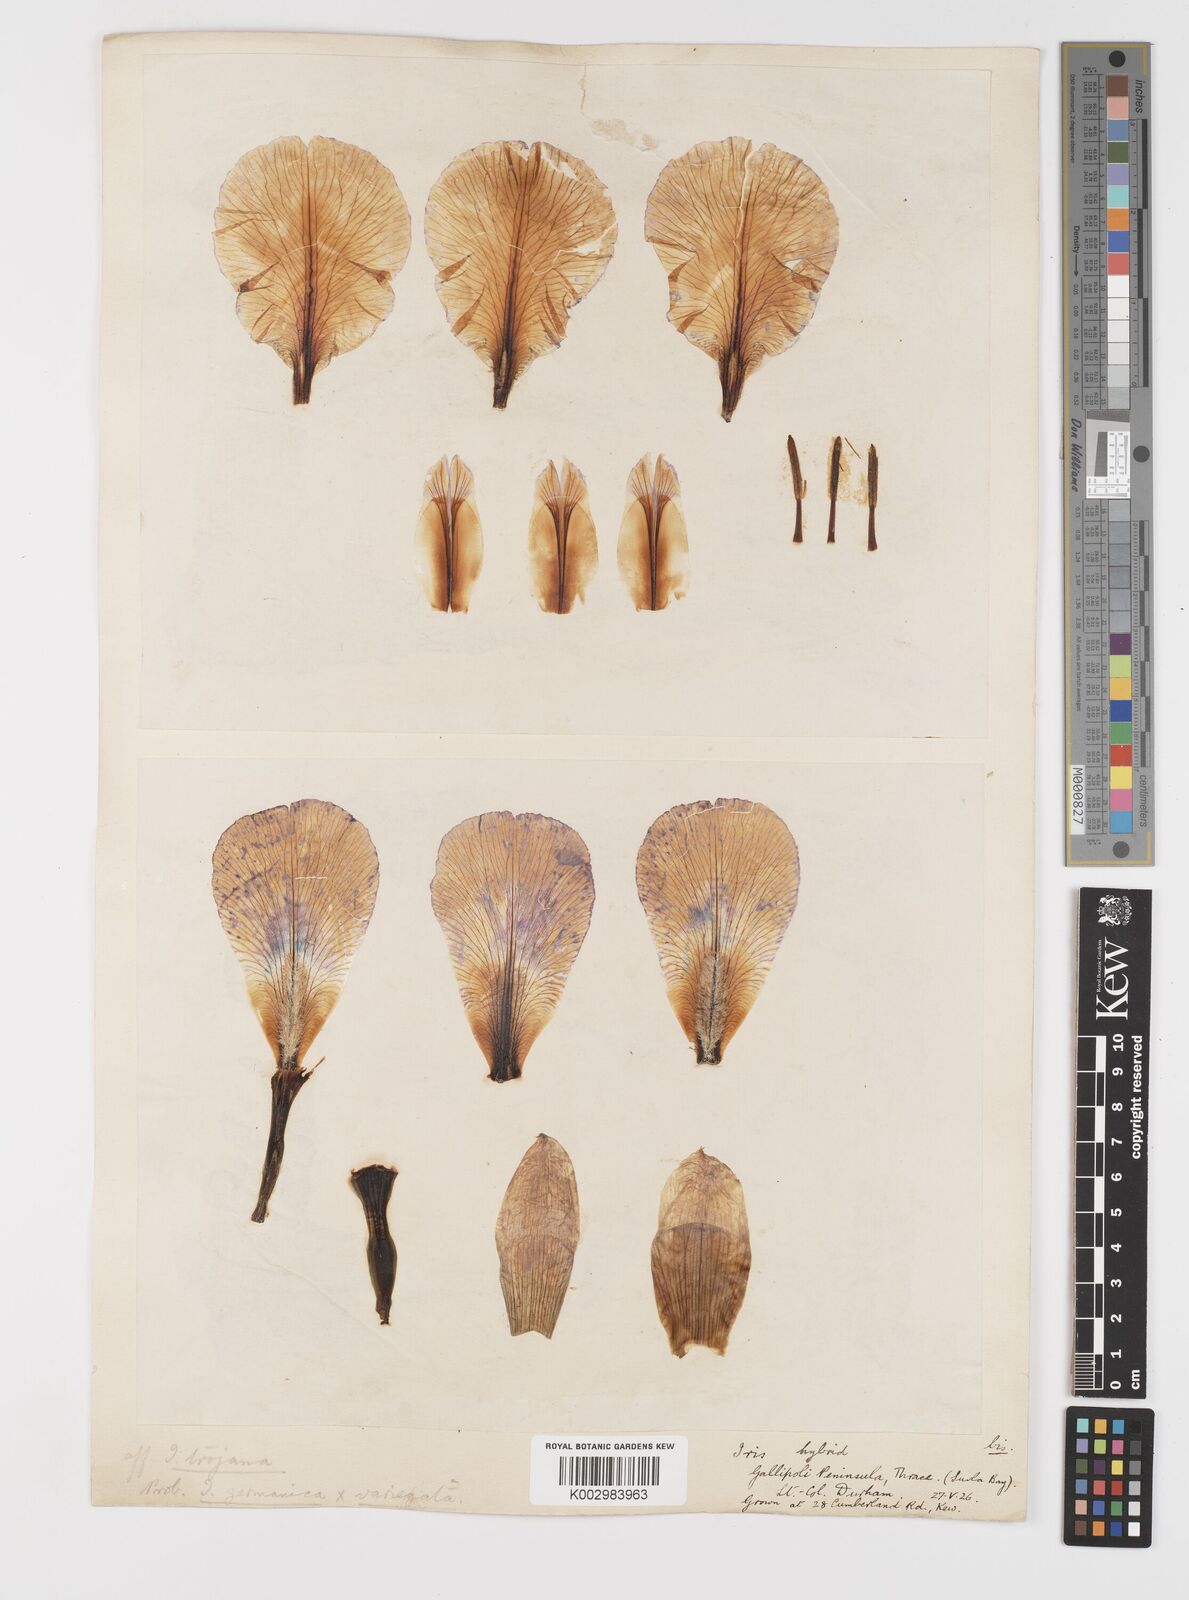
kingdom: Plantae
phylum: Tracheophyta
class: Liliopsida
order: Asparagales
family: Iridaceae
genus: Iris
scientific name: Iris germanica
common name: German iris
